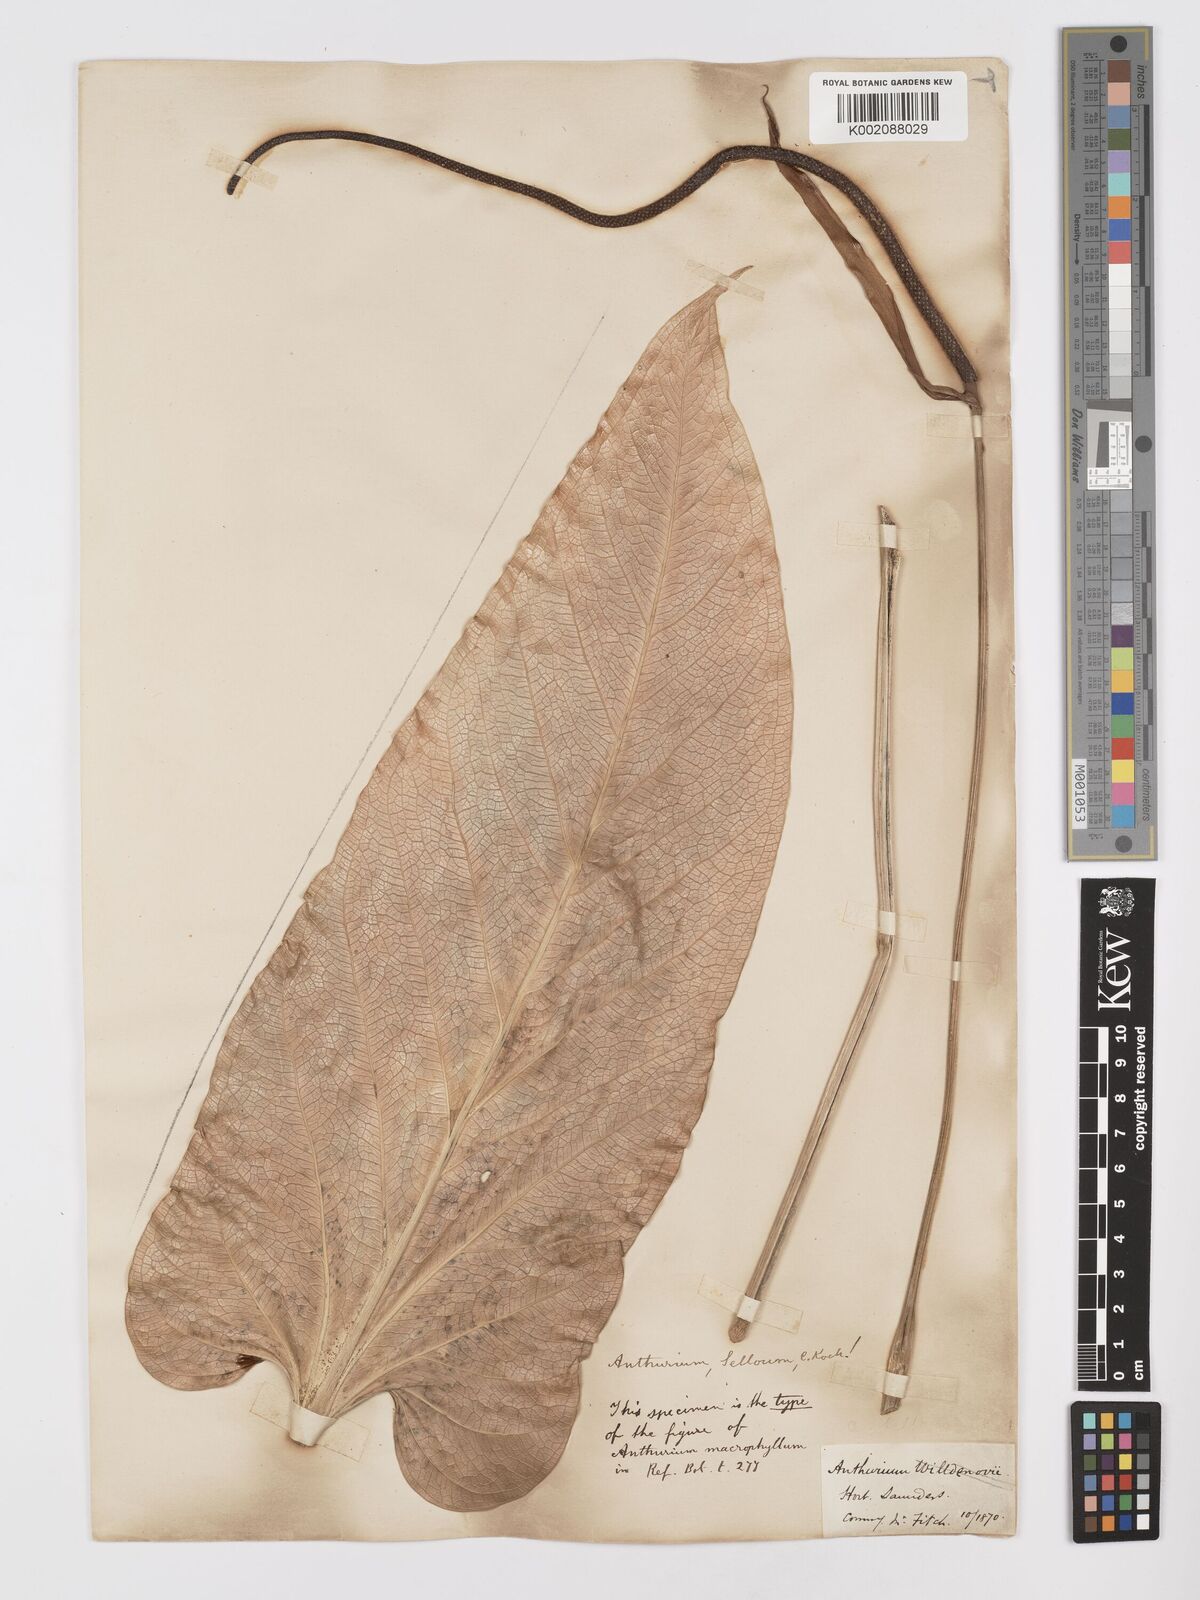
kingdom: Plantae
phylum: Tracheophyta
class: Liliopsida
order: Alismatales
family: Araceae
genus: Anthurium
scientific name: Anthurium
